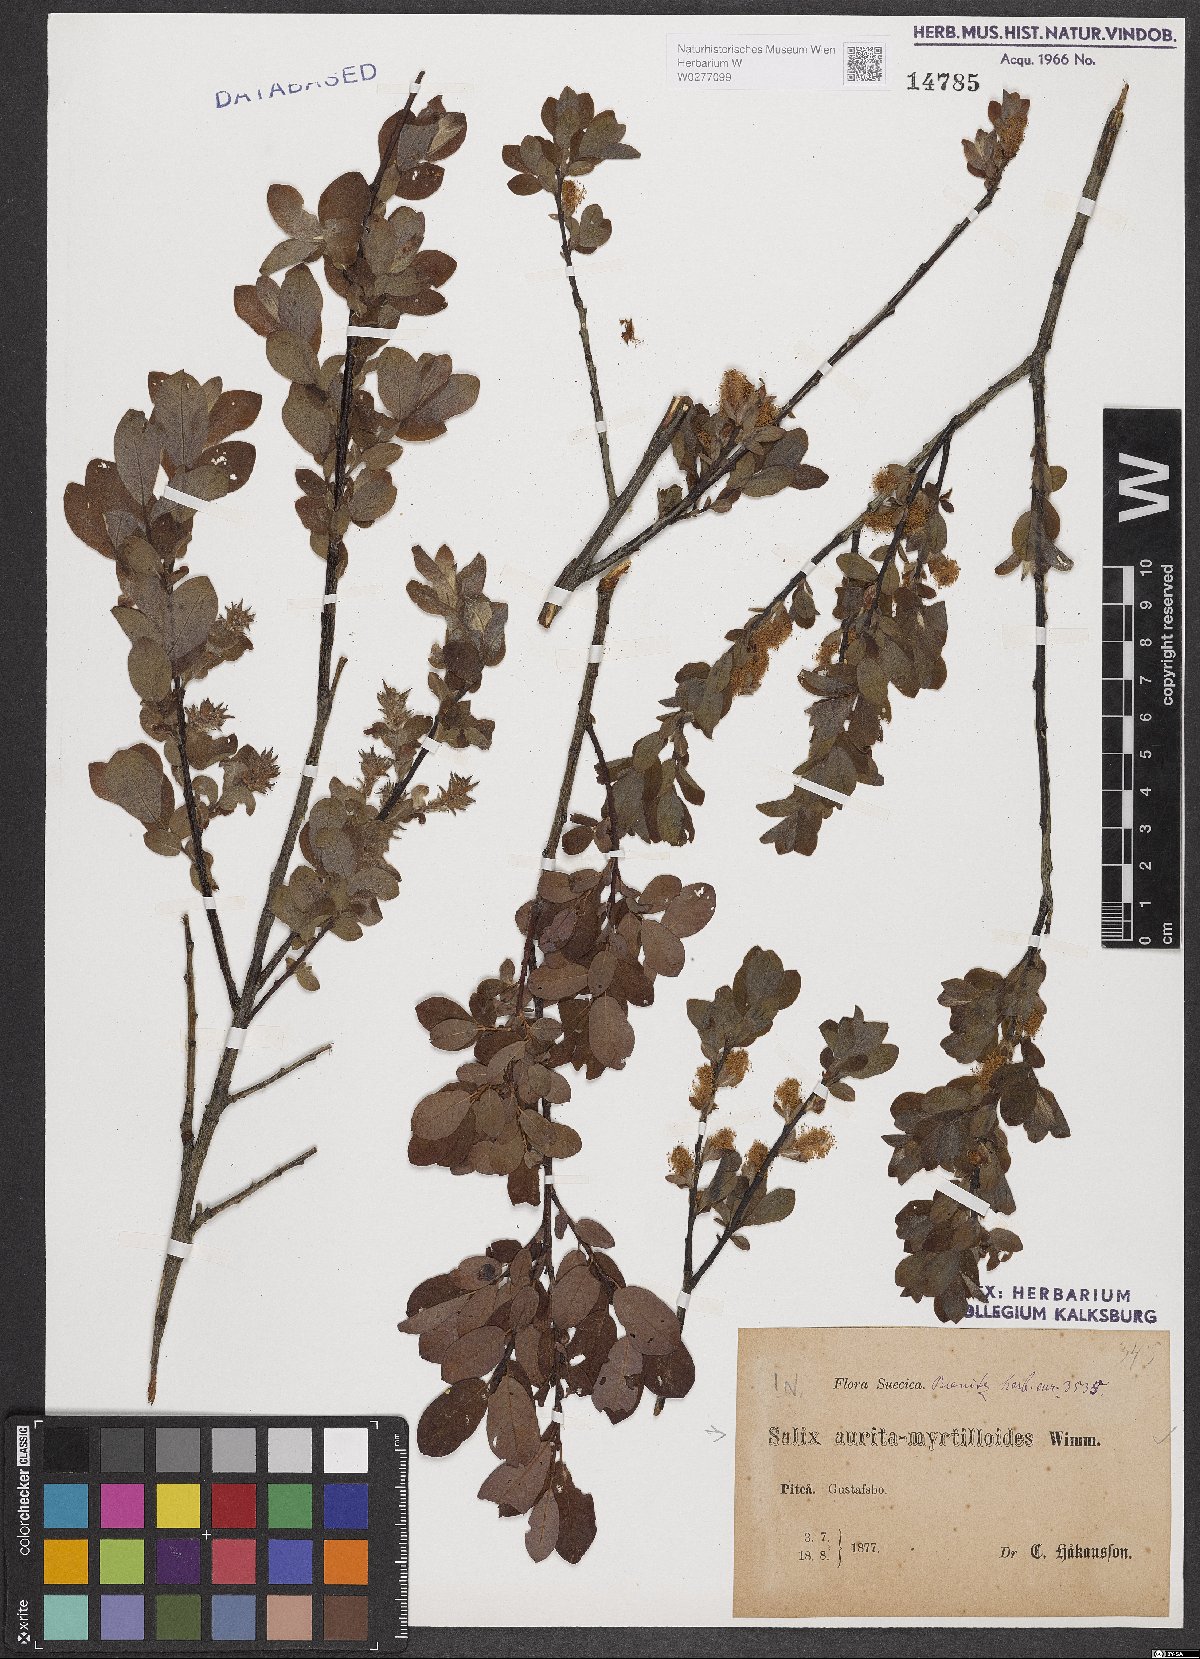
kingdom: Plantae
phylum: Tracheophyta
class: Magnoliopsida
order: Malpighiales
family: Salicaceae
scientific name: Salicaceae
